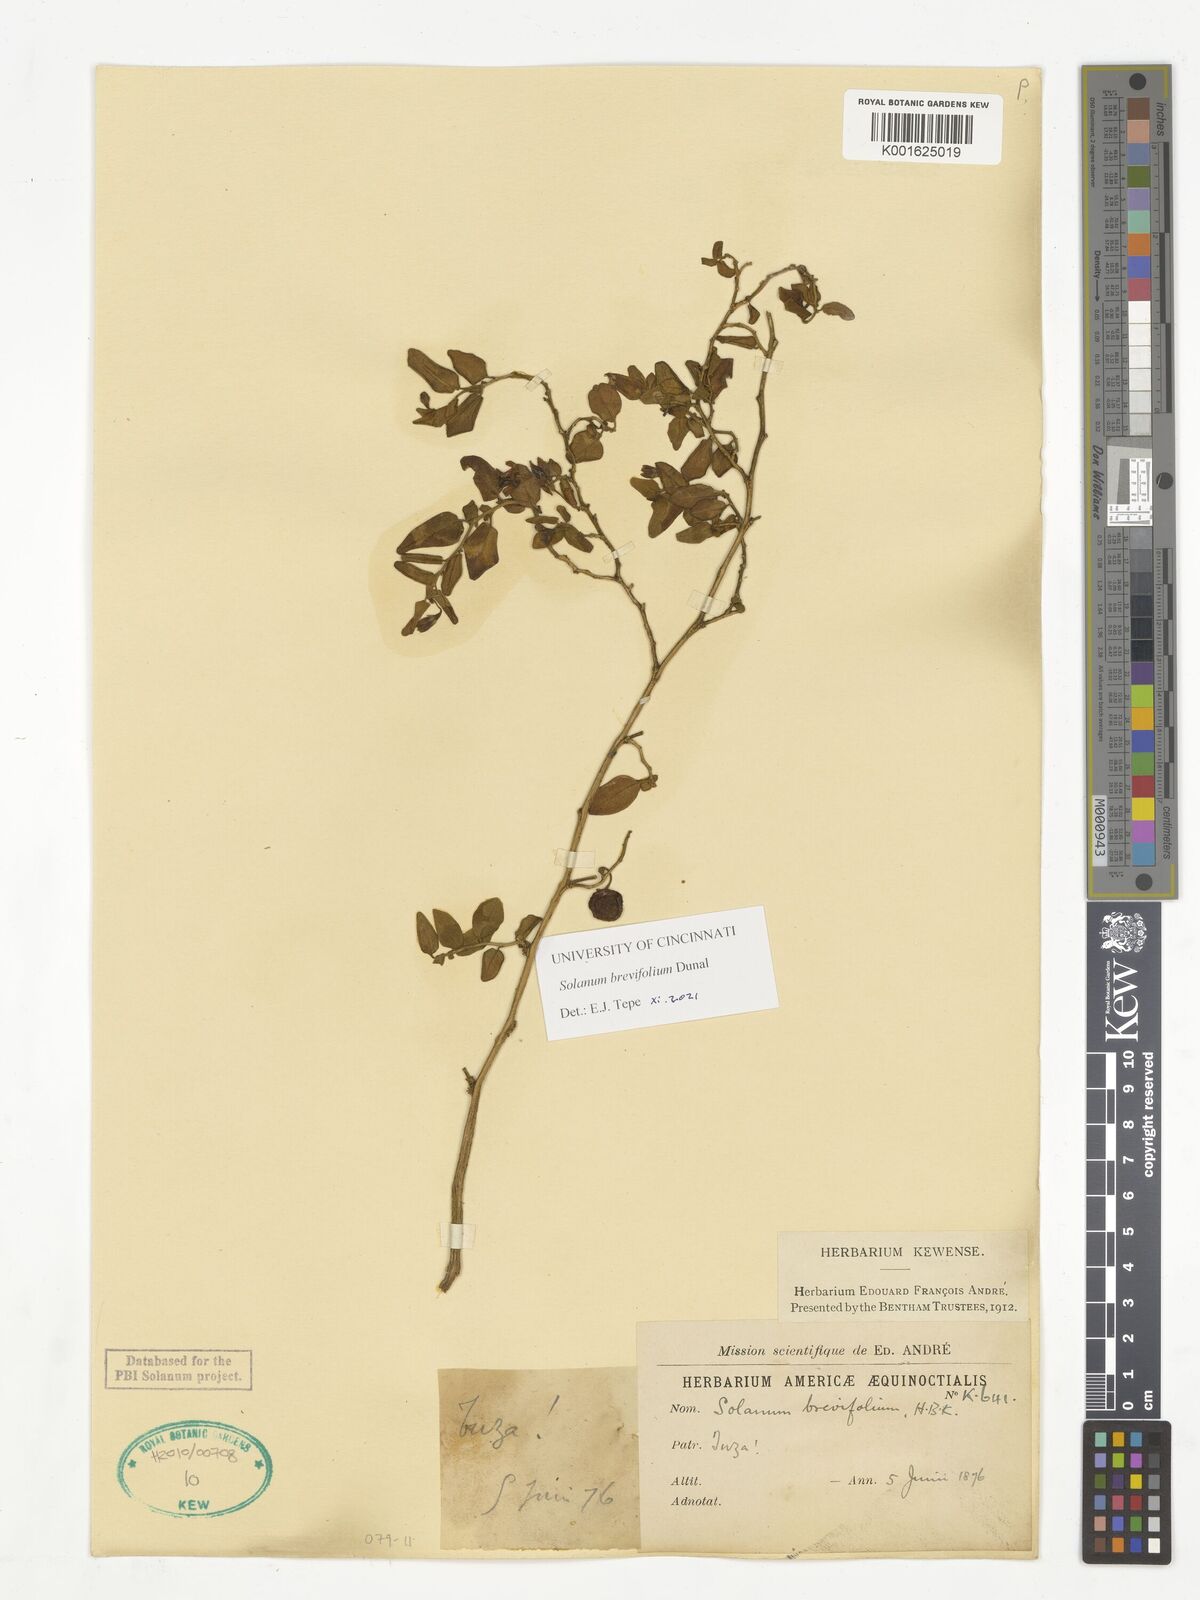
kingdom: Plantae
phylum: Tracheophyta
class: Magnoliopsida
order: Solanales
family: Solanaceae
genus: Solanum
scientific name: Solanum brevifolium
